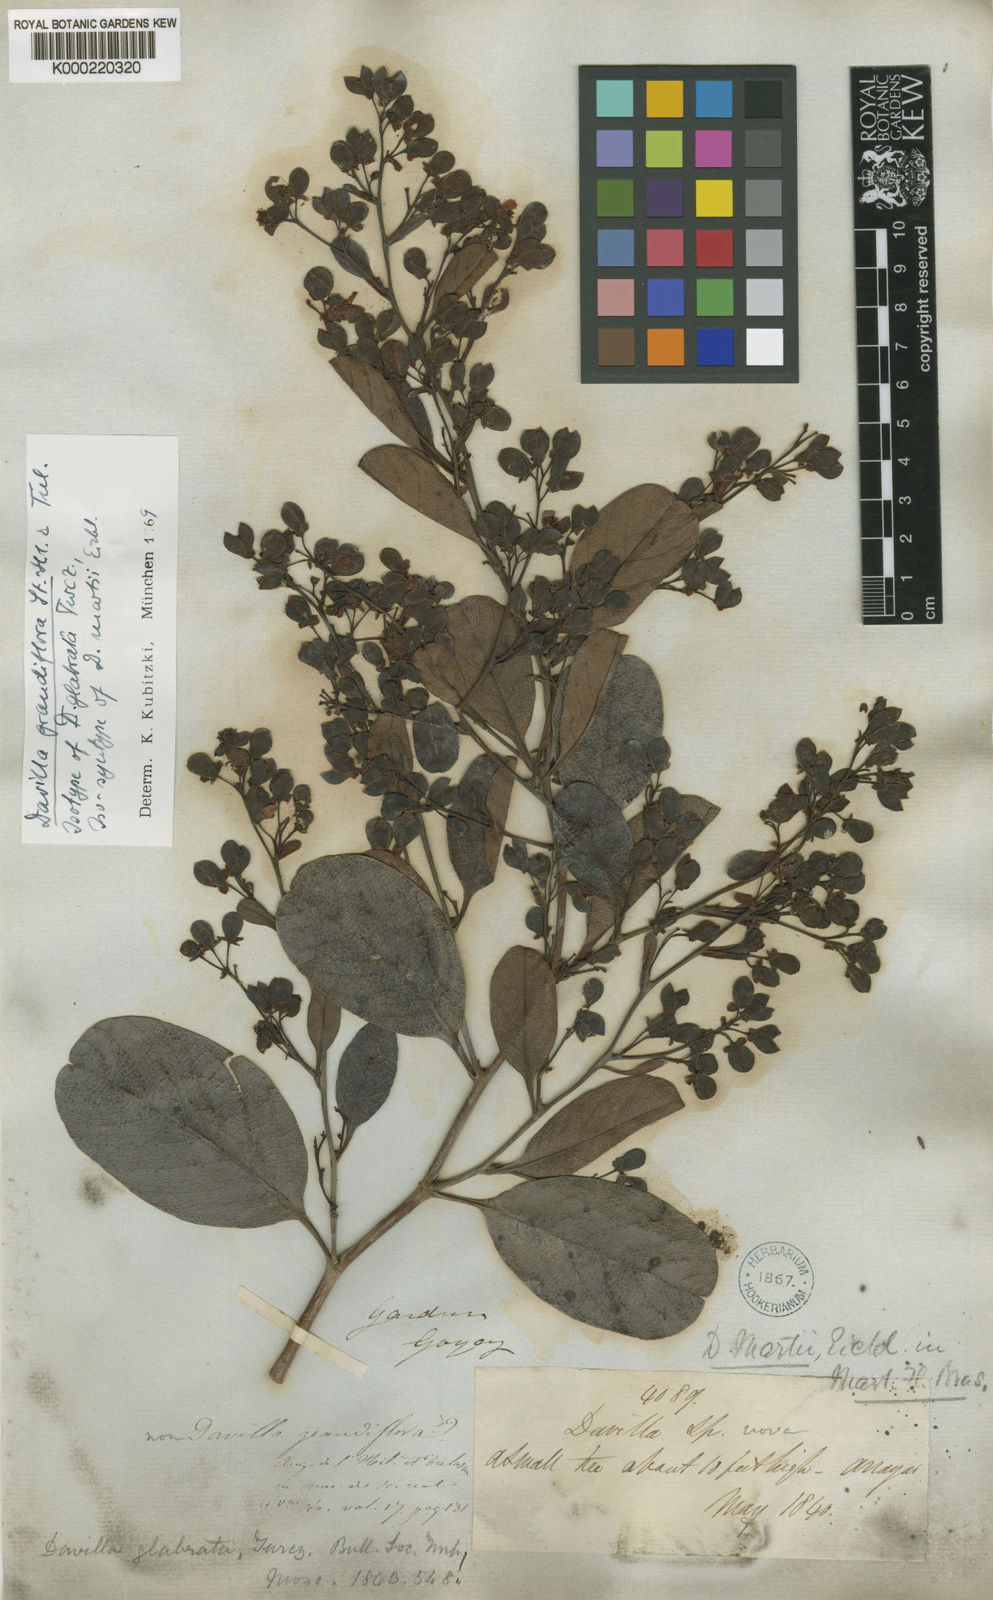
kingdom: Plantae
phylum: Tracheophyta
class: Magnoliopsida
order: Dilleniales
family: Dilleniaceae
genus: Davilla
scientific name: Davilla grandiflora
